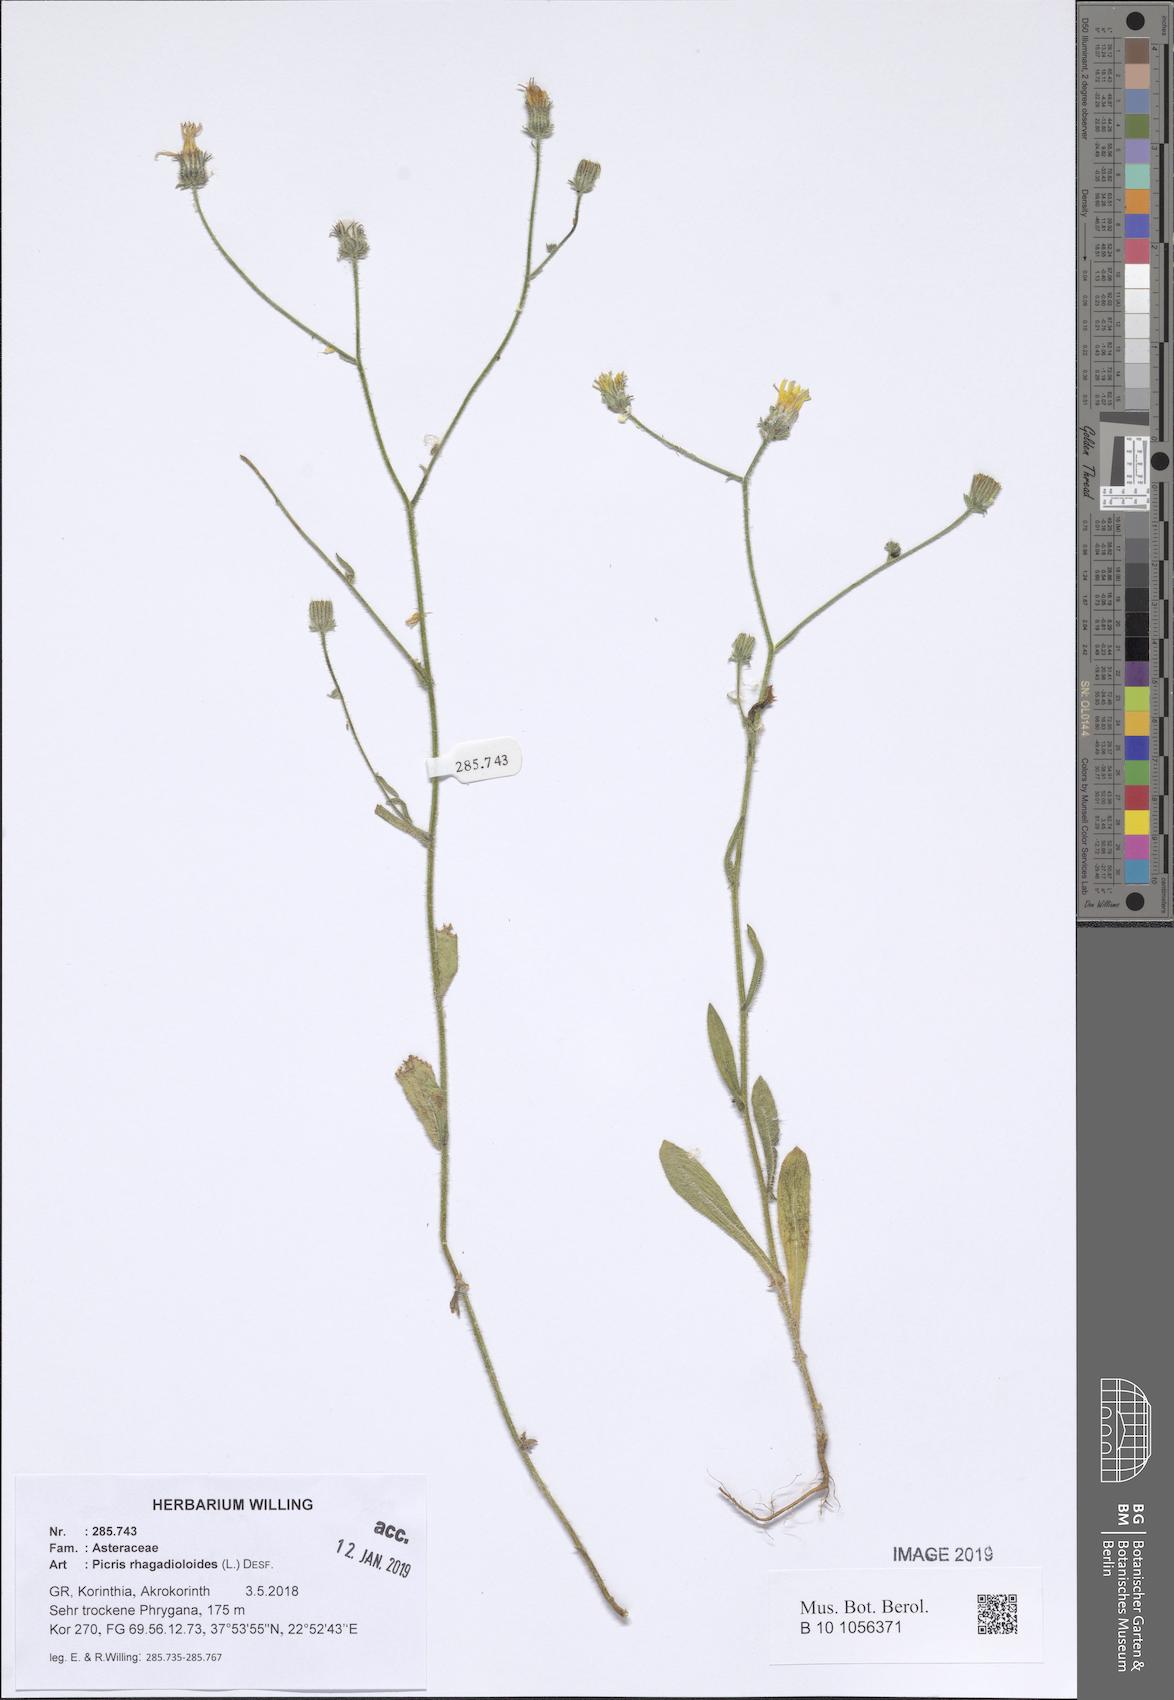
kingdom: Plantae
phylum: Tracheophyta
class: Magnoliopsida
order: Asterales
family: Asteraceae
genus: Picris
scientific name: Picris rhagadioloides
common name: Oxtongue
